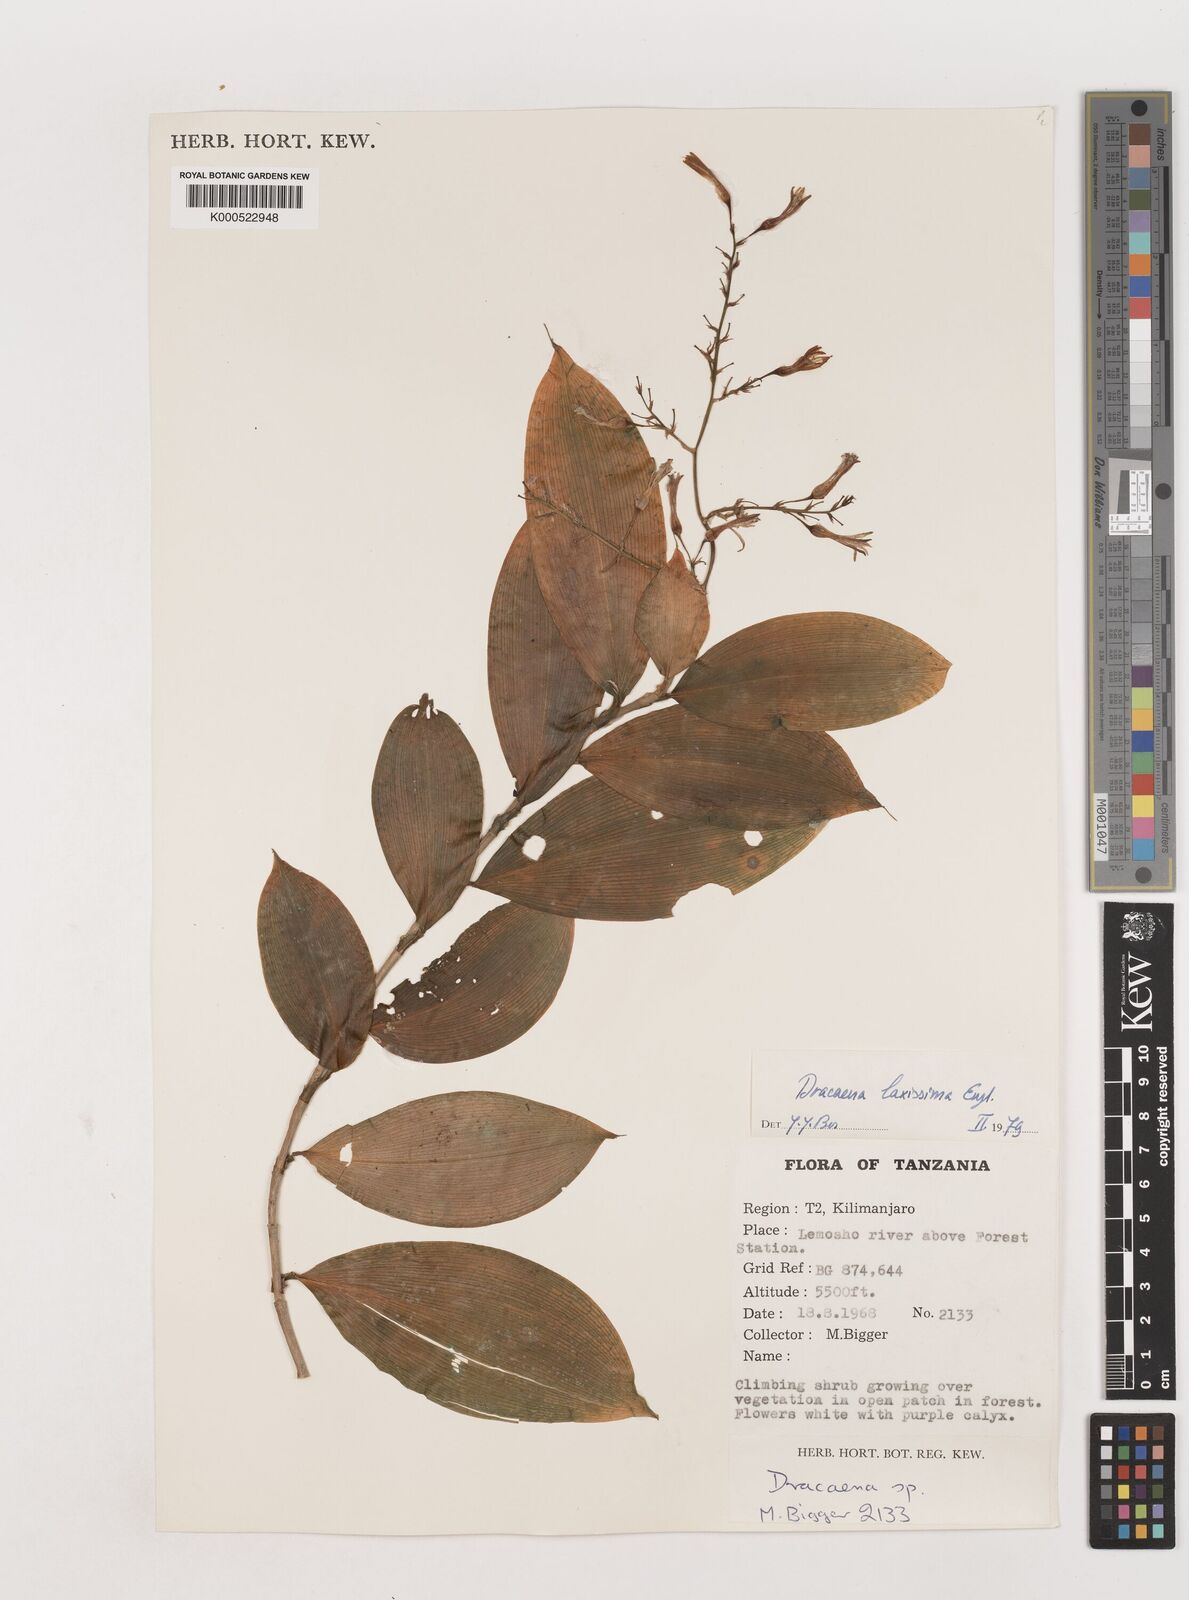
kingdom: Plantae
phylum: Tracheophyta
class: Liliopsida
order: Asparagales
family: Asparagaceae
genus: Dracaena
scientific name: Dracaena laxissima
